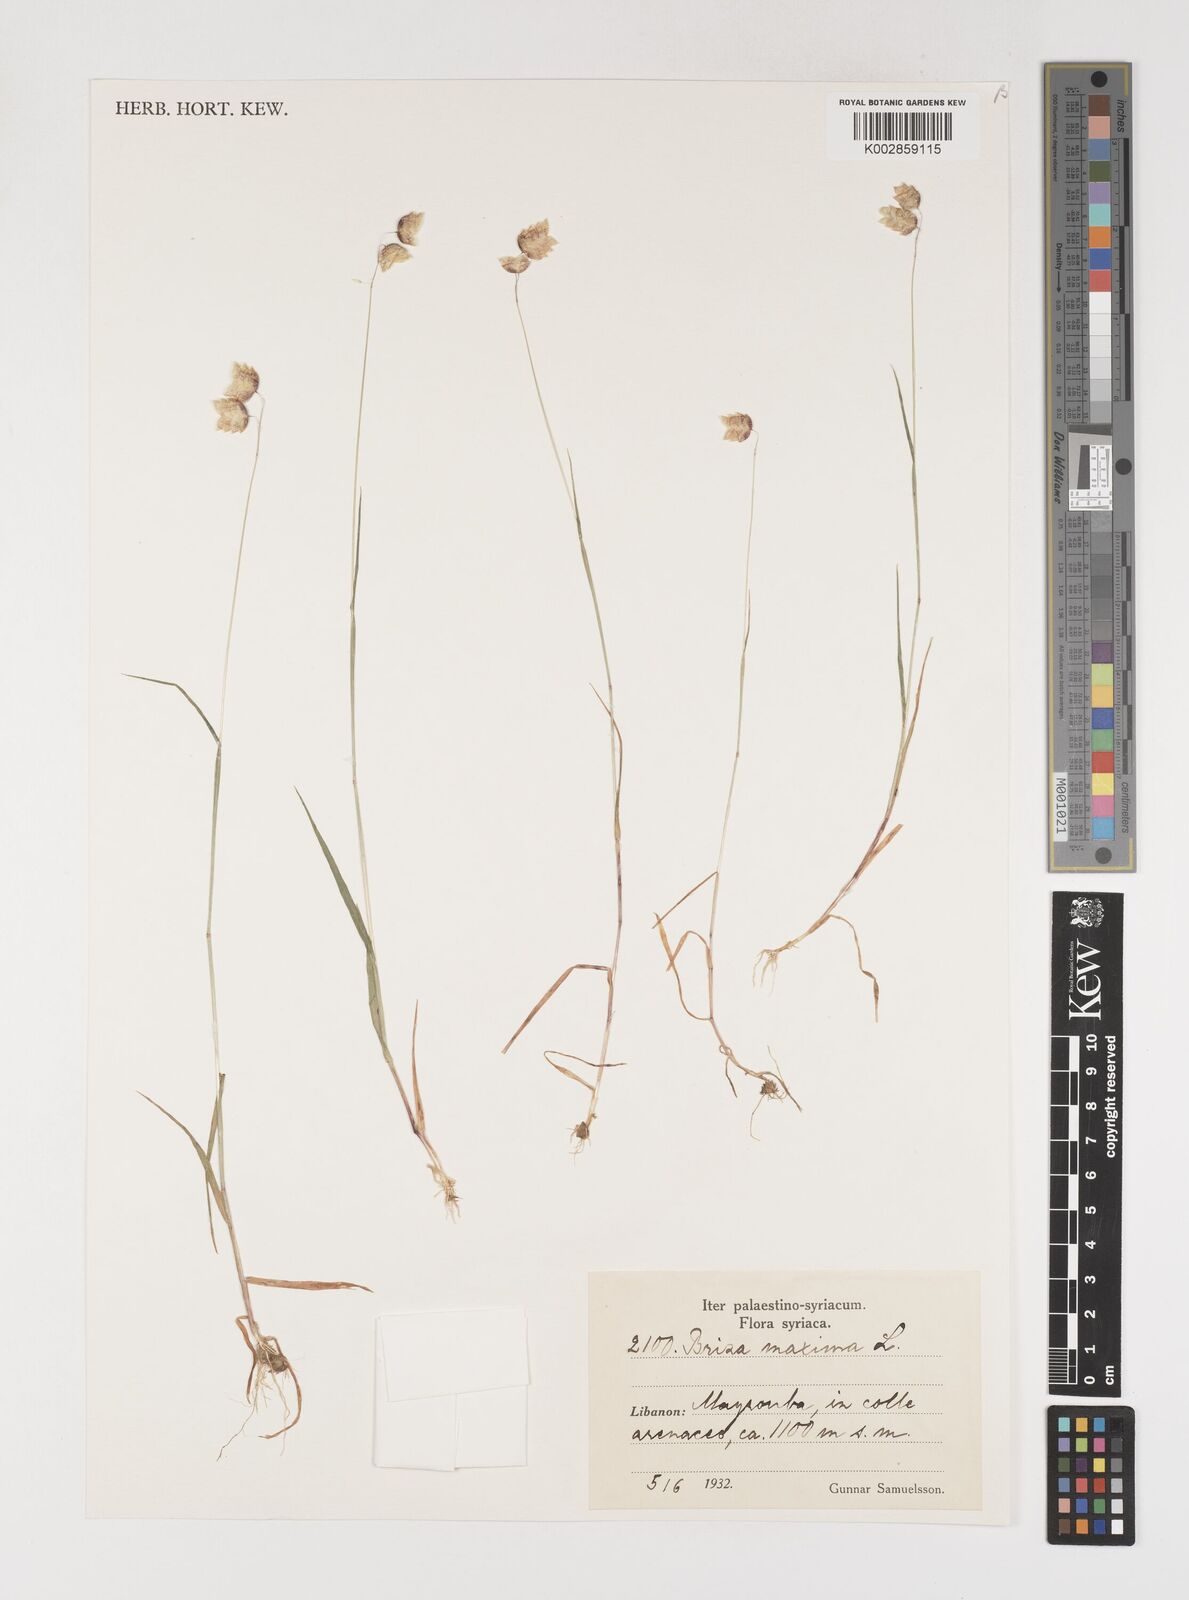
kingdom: Plantae
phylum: Tracheophyta
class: Liliopsida
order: Poales
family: Poaceae
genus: Briza
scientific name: Briza maxima
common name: Big quakinggrass
